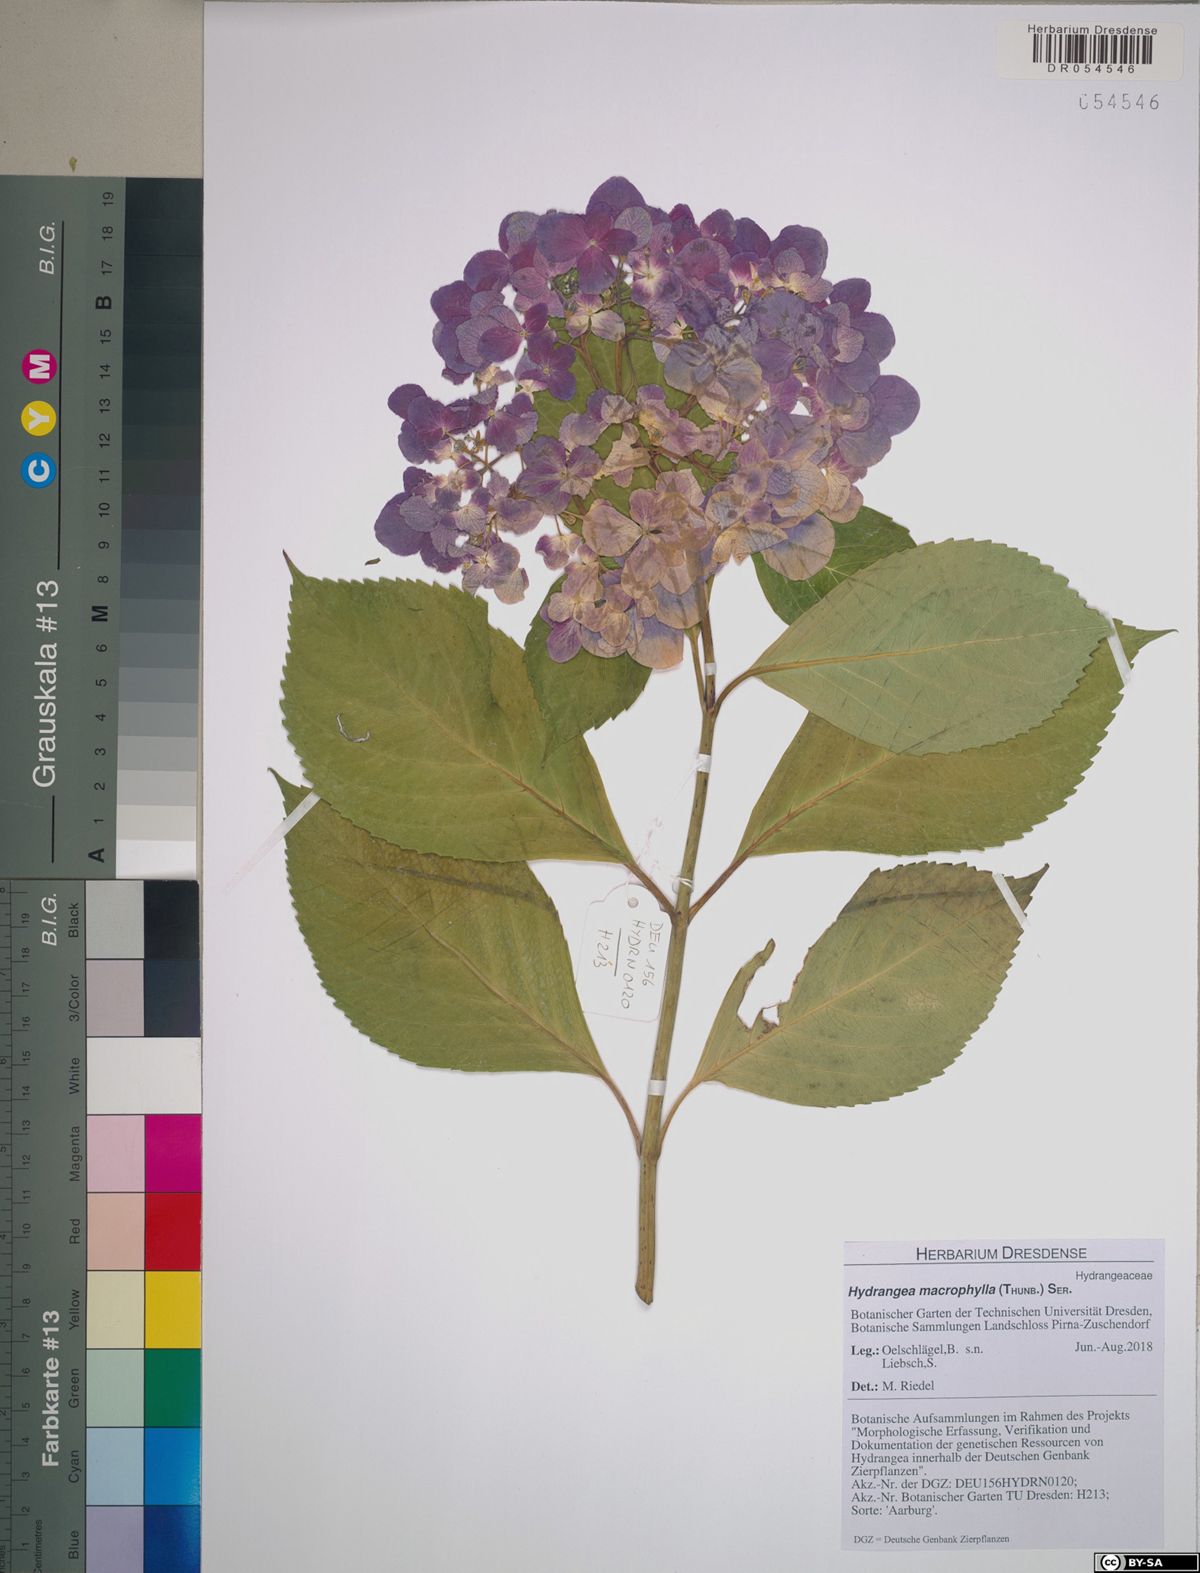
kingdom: Plantae
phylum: Tracheophyta
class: Magnoliopsida
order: Cornales
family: Hydrangeaceae
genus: Hydrangea
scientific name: Hydrangea macrophylla
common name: Hydrangea
